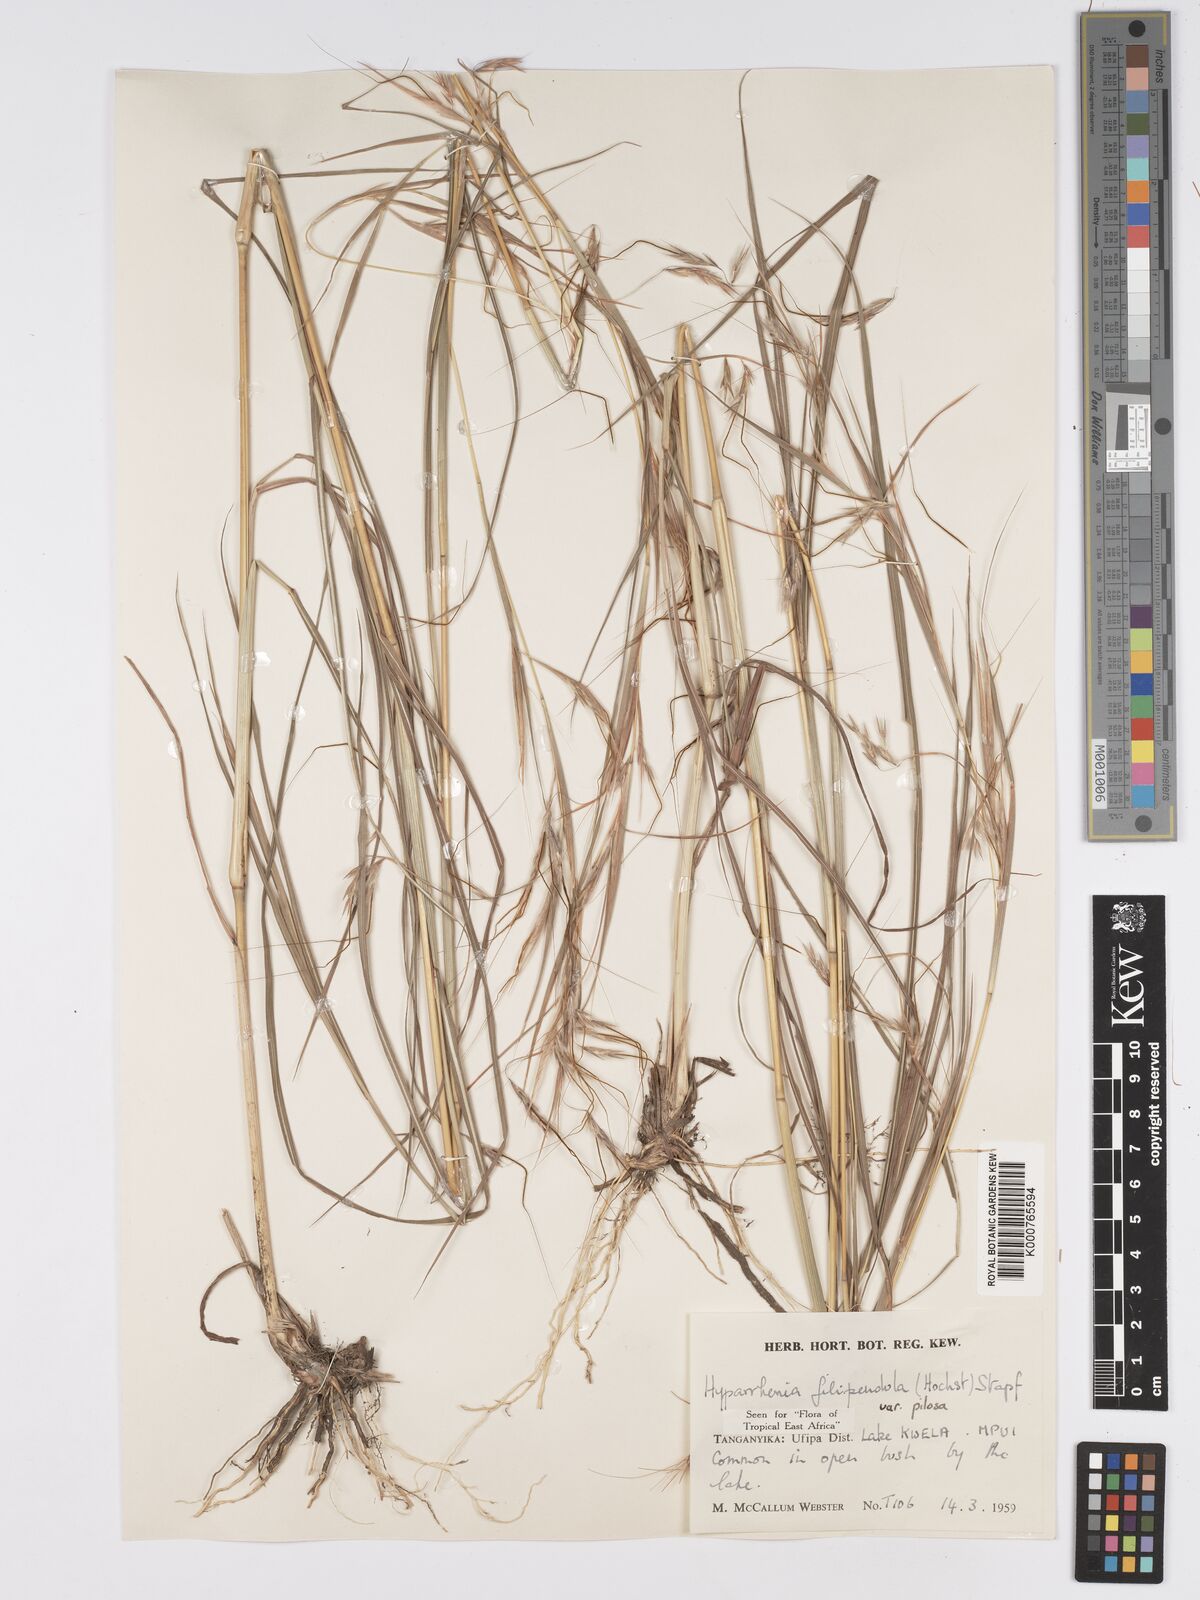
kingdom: Plantae
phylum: Tracheophyta
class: Liliopsida
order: Poales
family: Poaceae
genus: Hyparrhenia
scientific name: Hyparrhenia filipendula
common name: Tambookie grass
